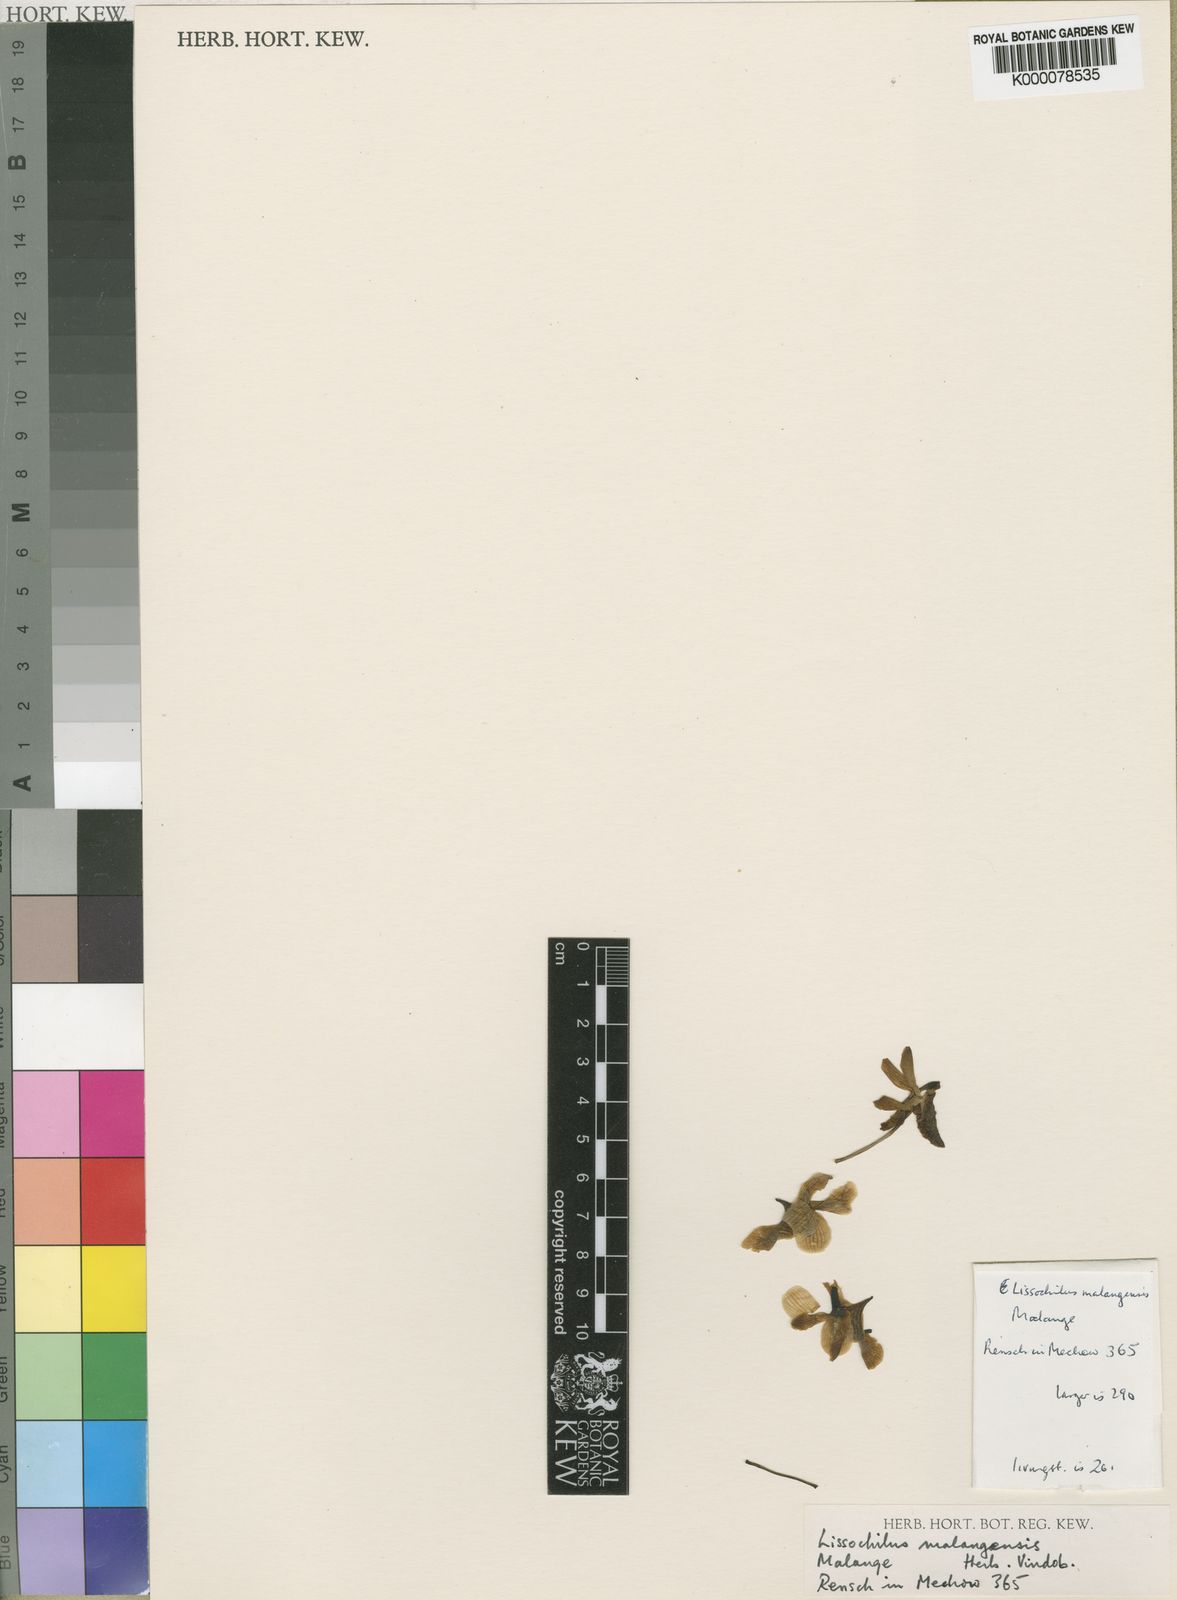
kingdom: Plantae
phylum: Tracheophyta
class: Liliopsida
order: Asparagales
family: Orchidaceae
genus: Eulophia
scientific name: Eulophia
